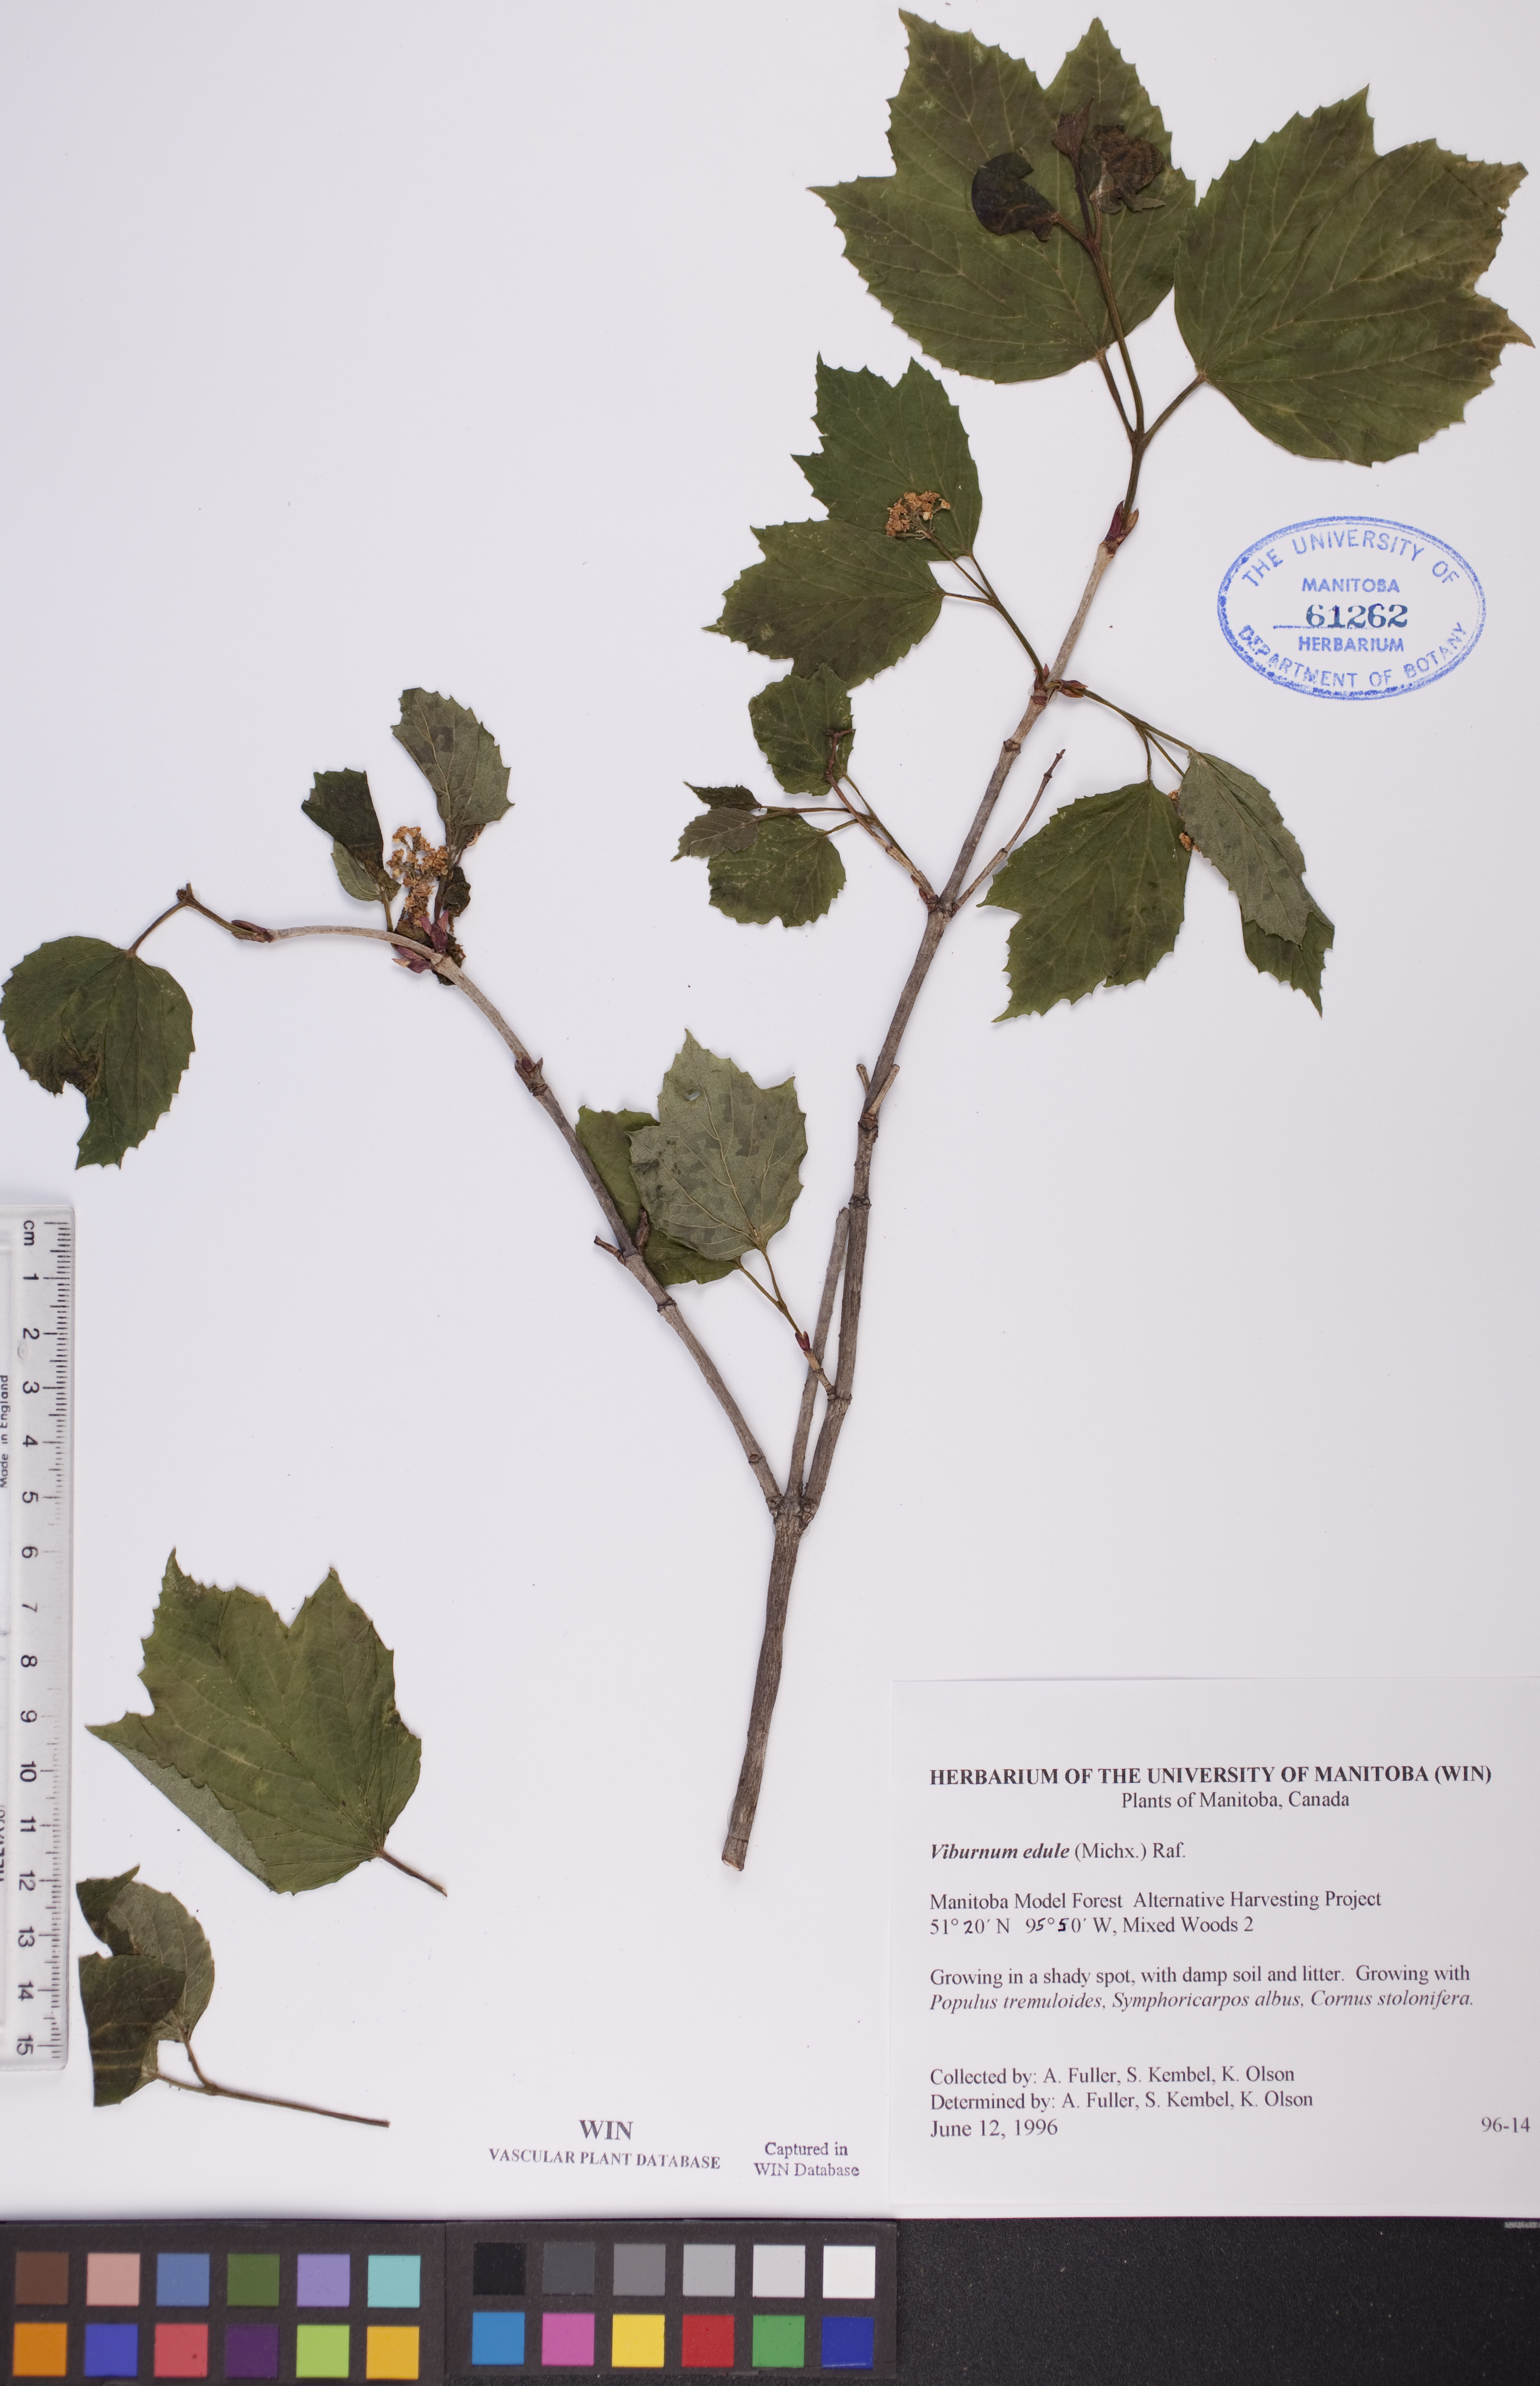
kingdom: Plantae
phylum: Tracheophyta
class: Magnoliopsida
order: Dipsacales
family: Viburnaceae
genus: Viburnum
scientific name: Viburnum edule
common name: Mooseberry
